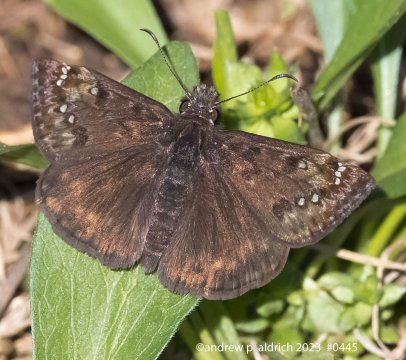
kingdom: Animalia
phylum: Arthropoda
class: Insecta
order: Lepidoptera
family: Hesperiidae
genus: Gesta
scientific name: Gesta
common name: Juvenal's Duskywing
